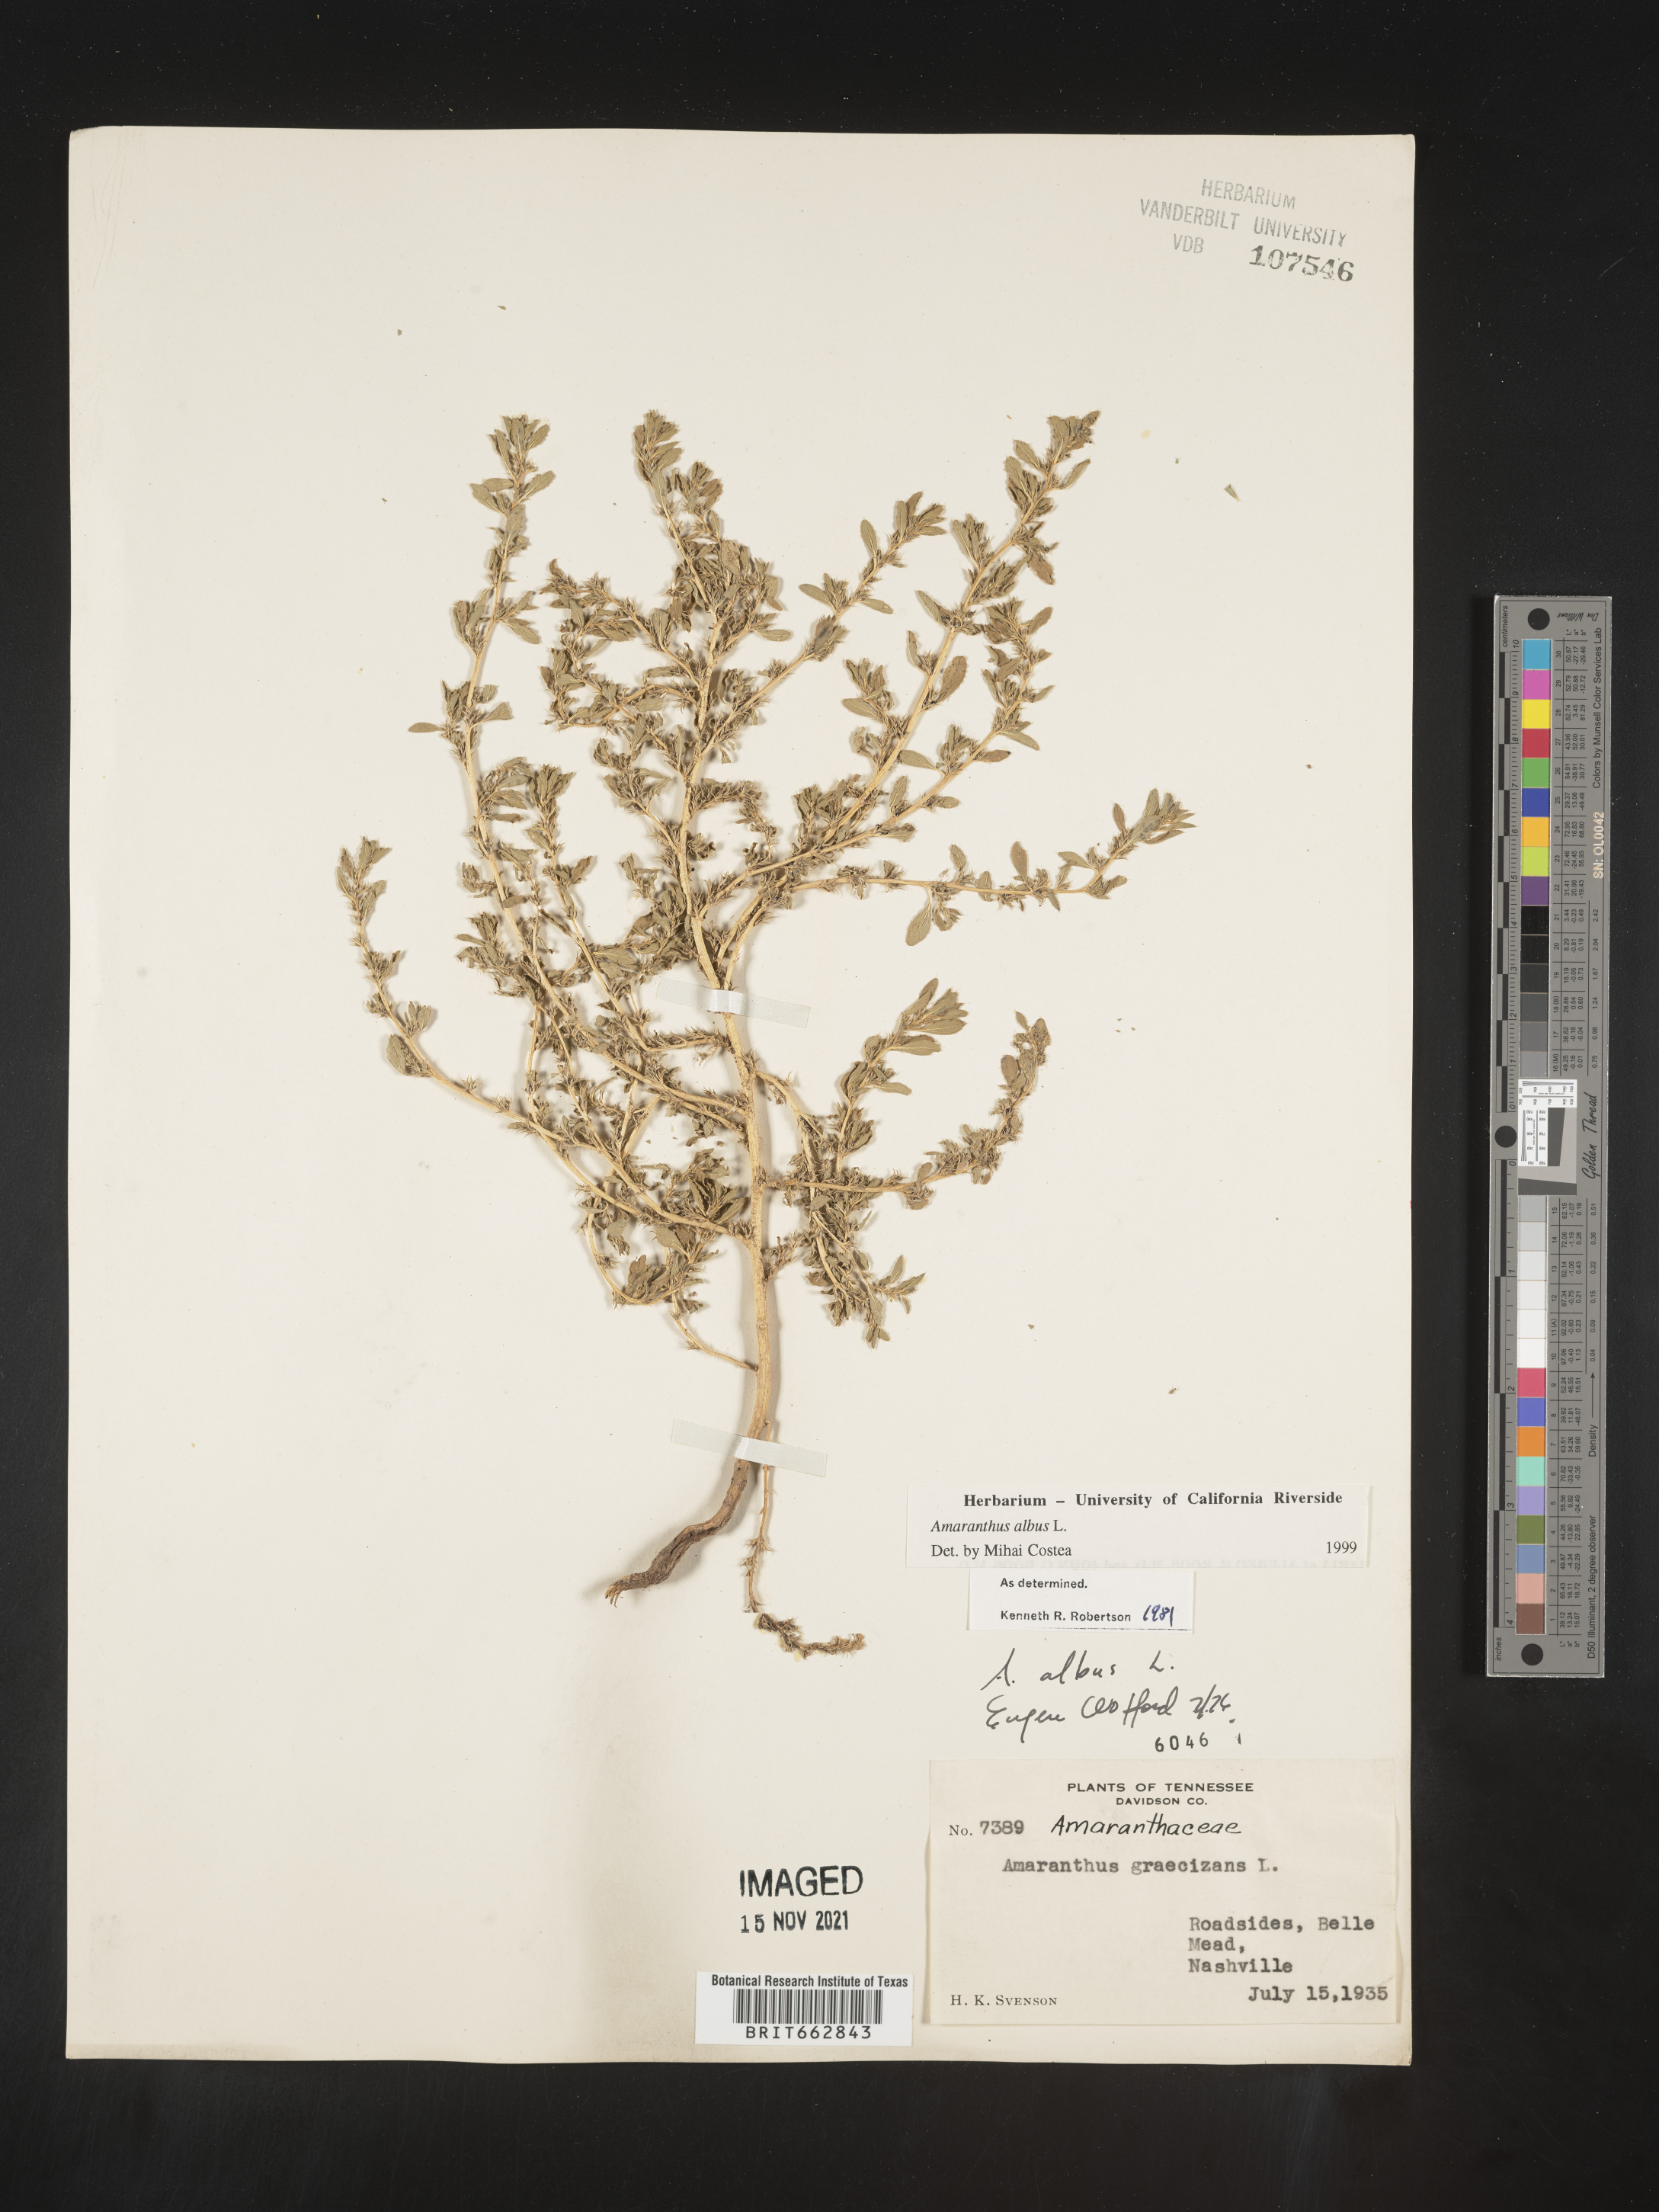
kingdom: Plantae
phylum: Tracheophyta
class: Magnoliopsida
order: Caryophyllales
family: Amaranthaceae
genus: Amaranthus
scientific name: Amaranthus albus
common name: White pigweed
